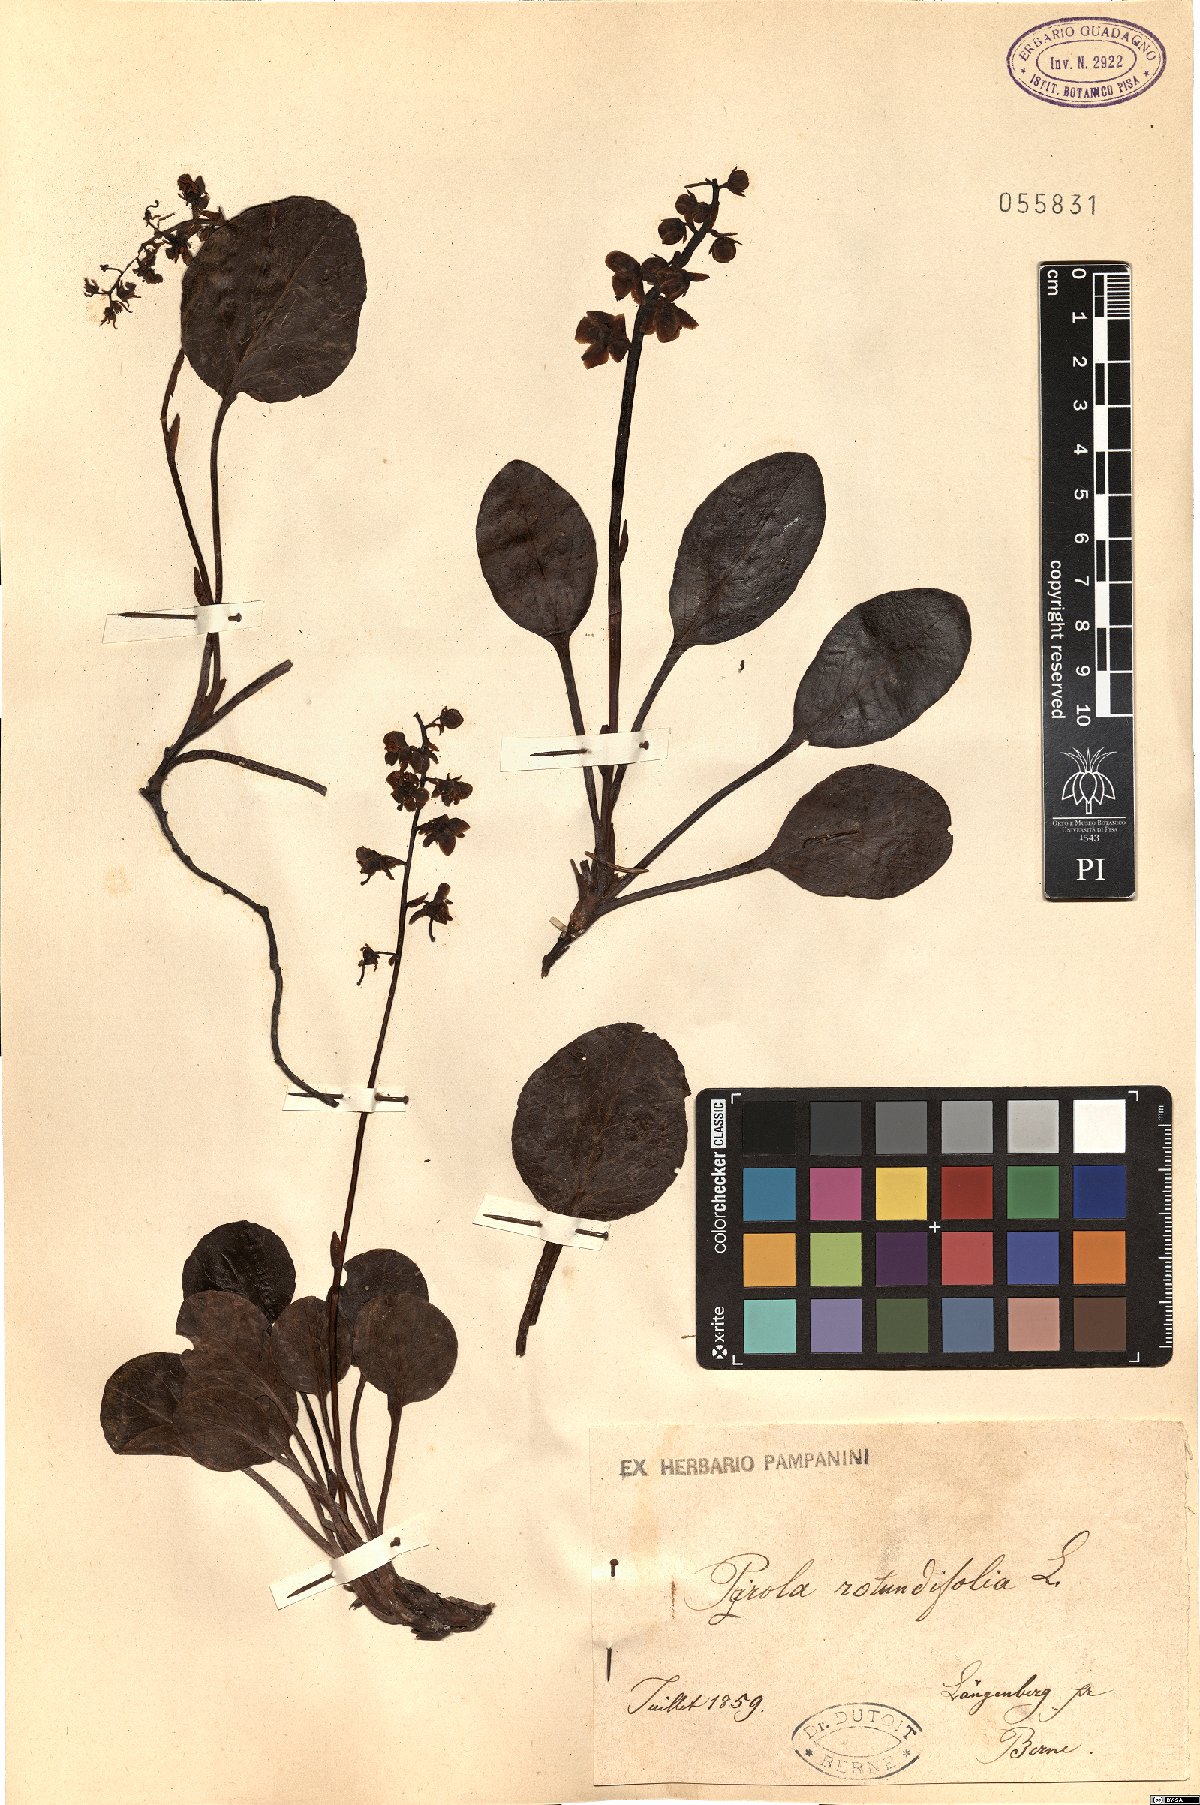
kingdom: Plantae
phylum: Tracheophyta
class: Magnoliopsida
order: Ericales
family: Ericaceae
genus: Pyrola
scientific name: Pyrola rotundifolia
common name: Round-leaved wintergreen
